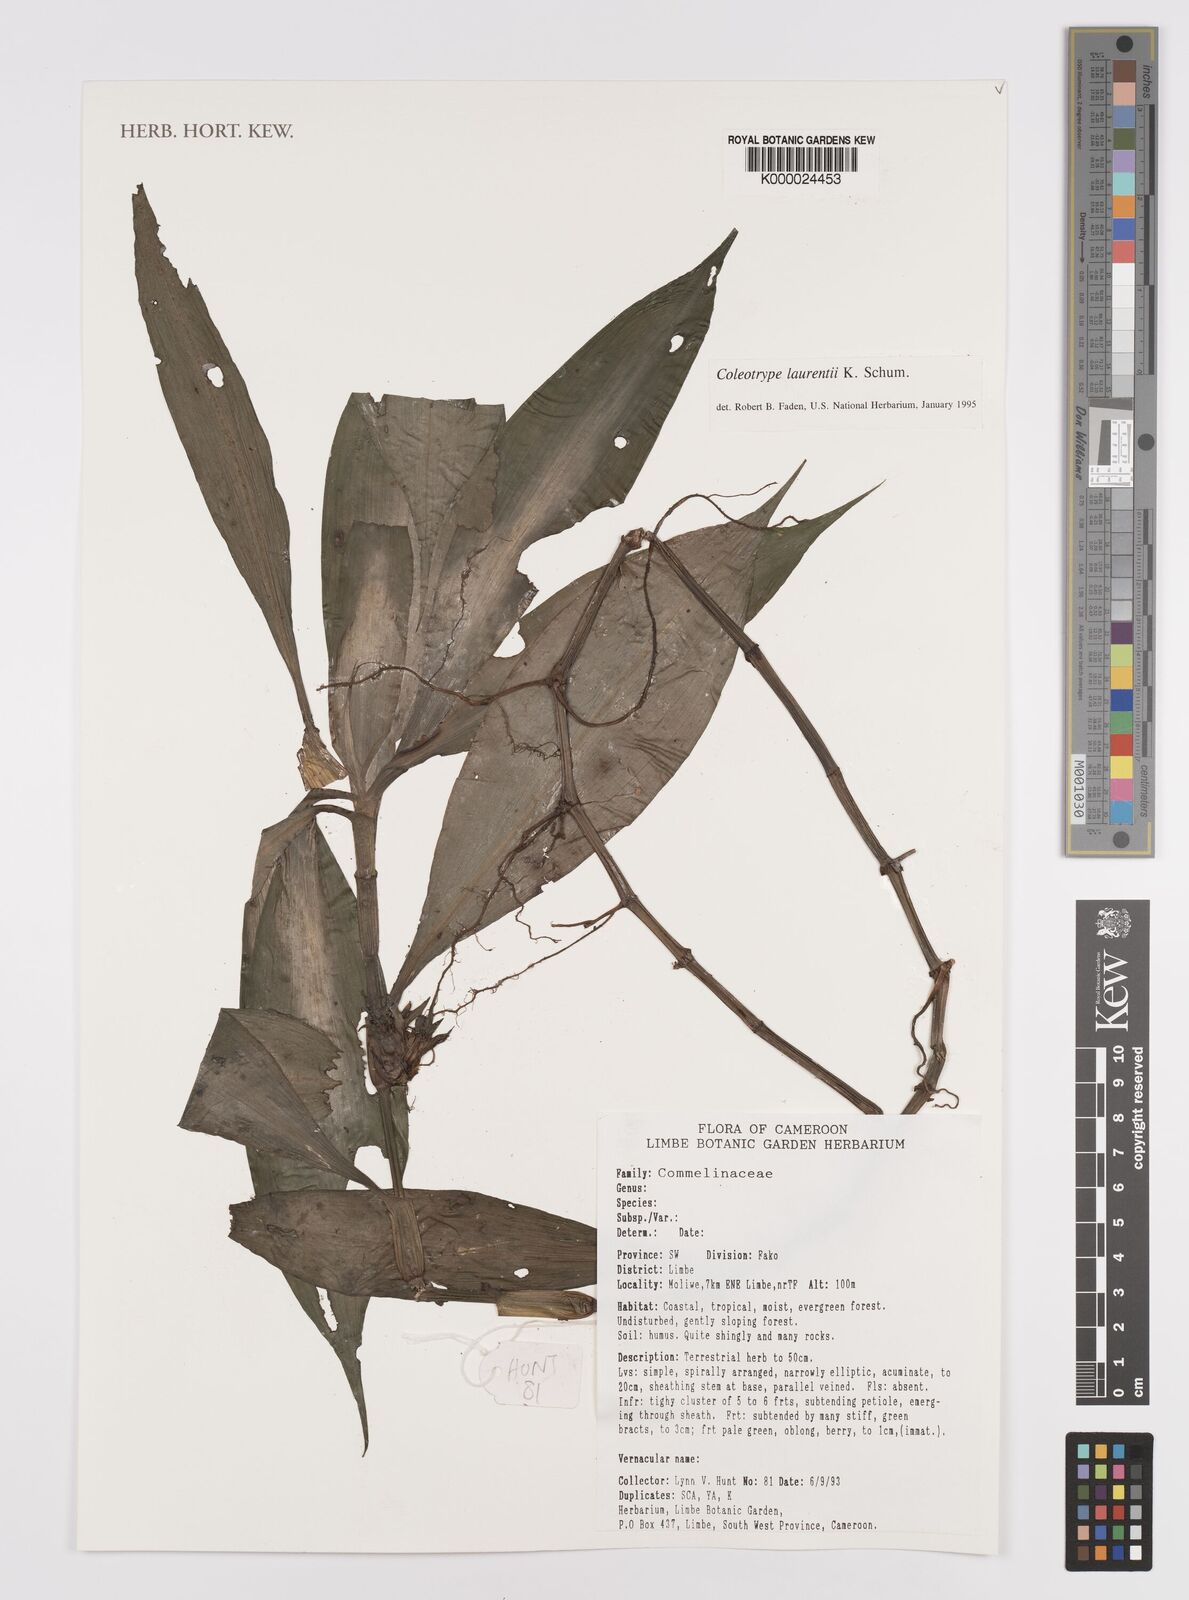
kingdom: Plantae
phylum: Tracheophyta
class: Liliopsida
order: Commelinales
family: Commelinaceae
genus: Coleotrype
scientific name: Coleotrype laurentii
